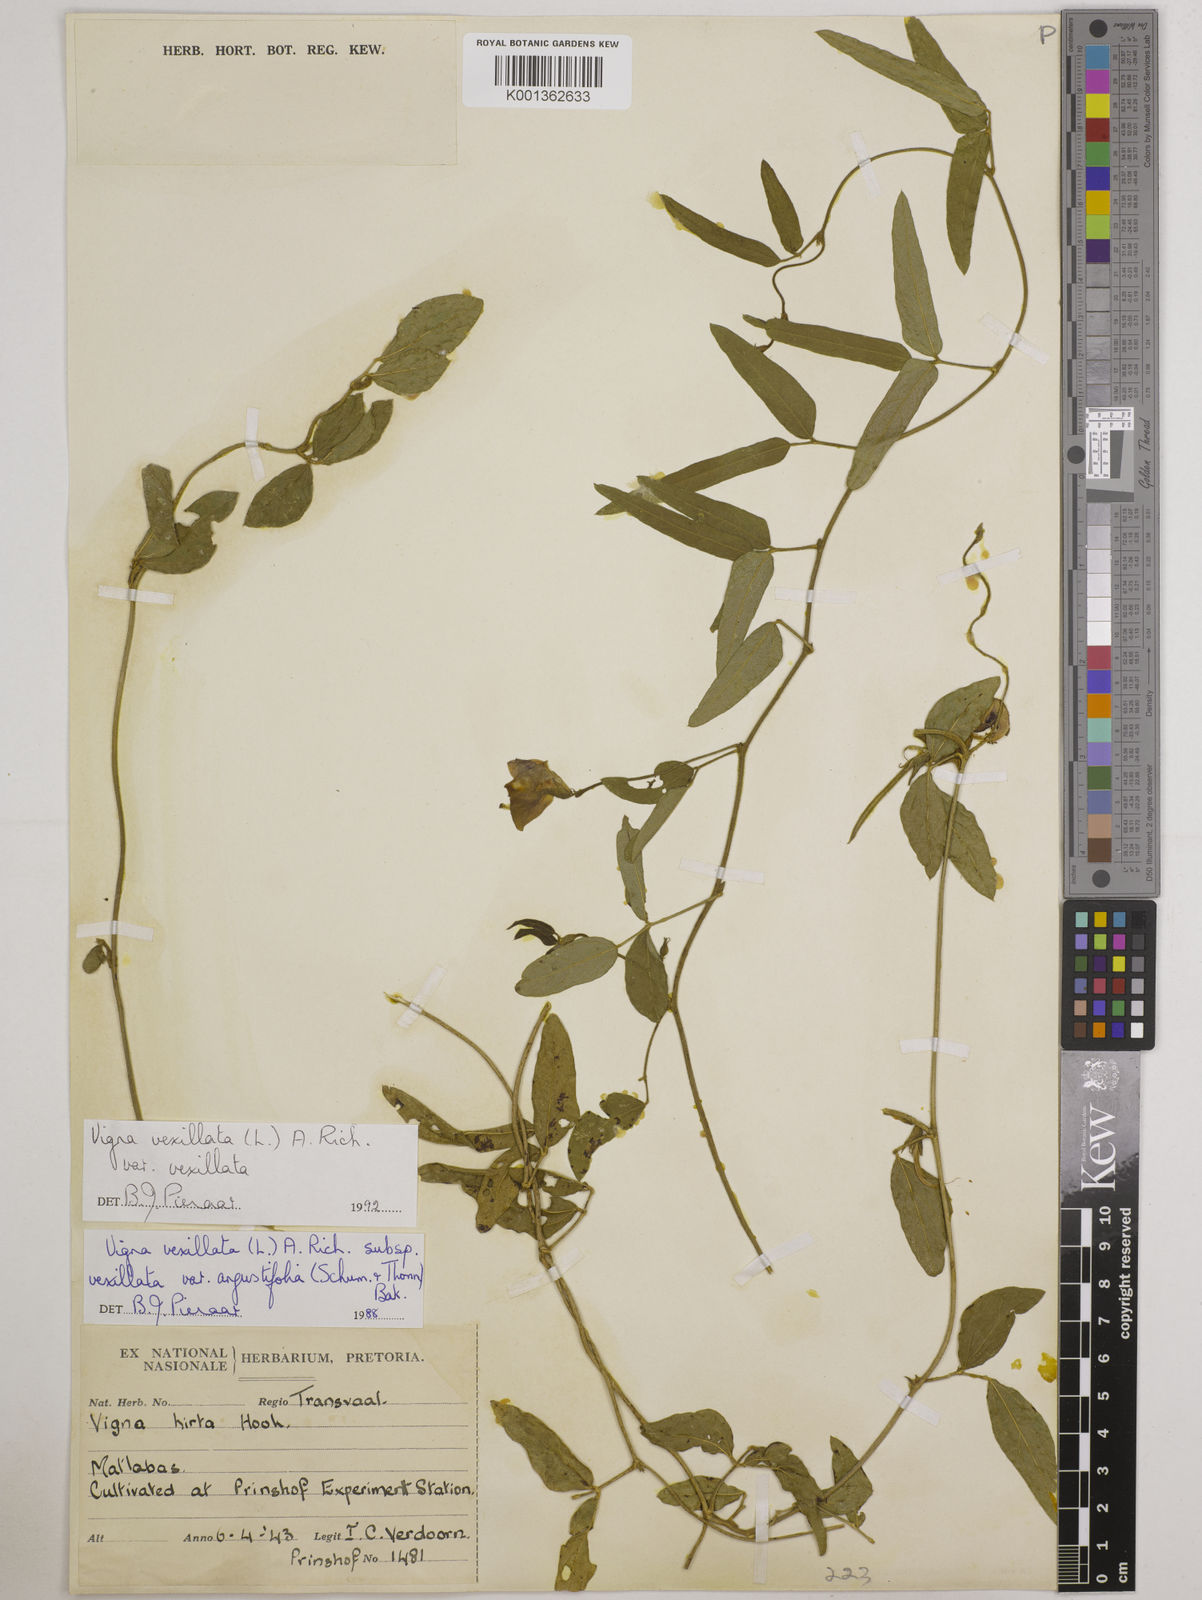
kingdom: Plantae
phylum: Tracheophyta
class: Magnoliopsida
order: Fabales
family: Fabaceae
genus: Vigna
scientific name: Vigna vexillata
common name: Zombi pea
